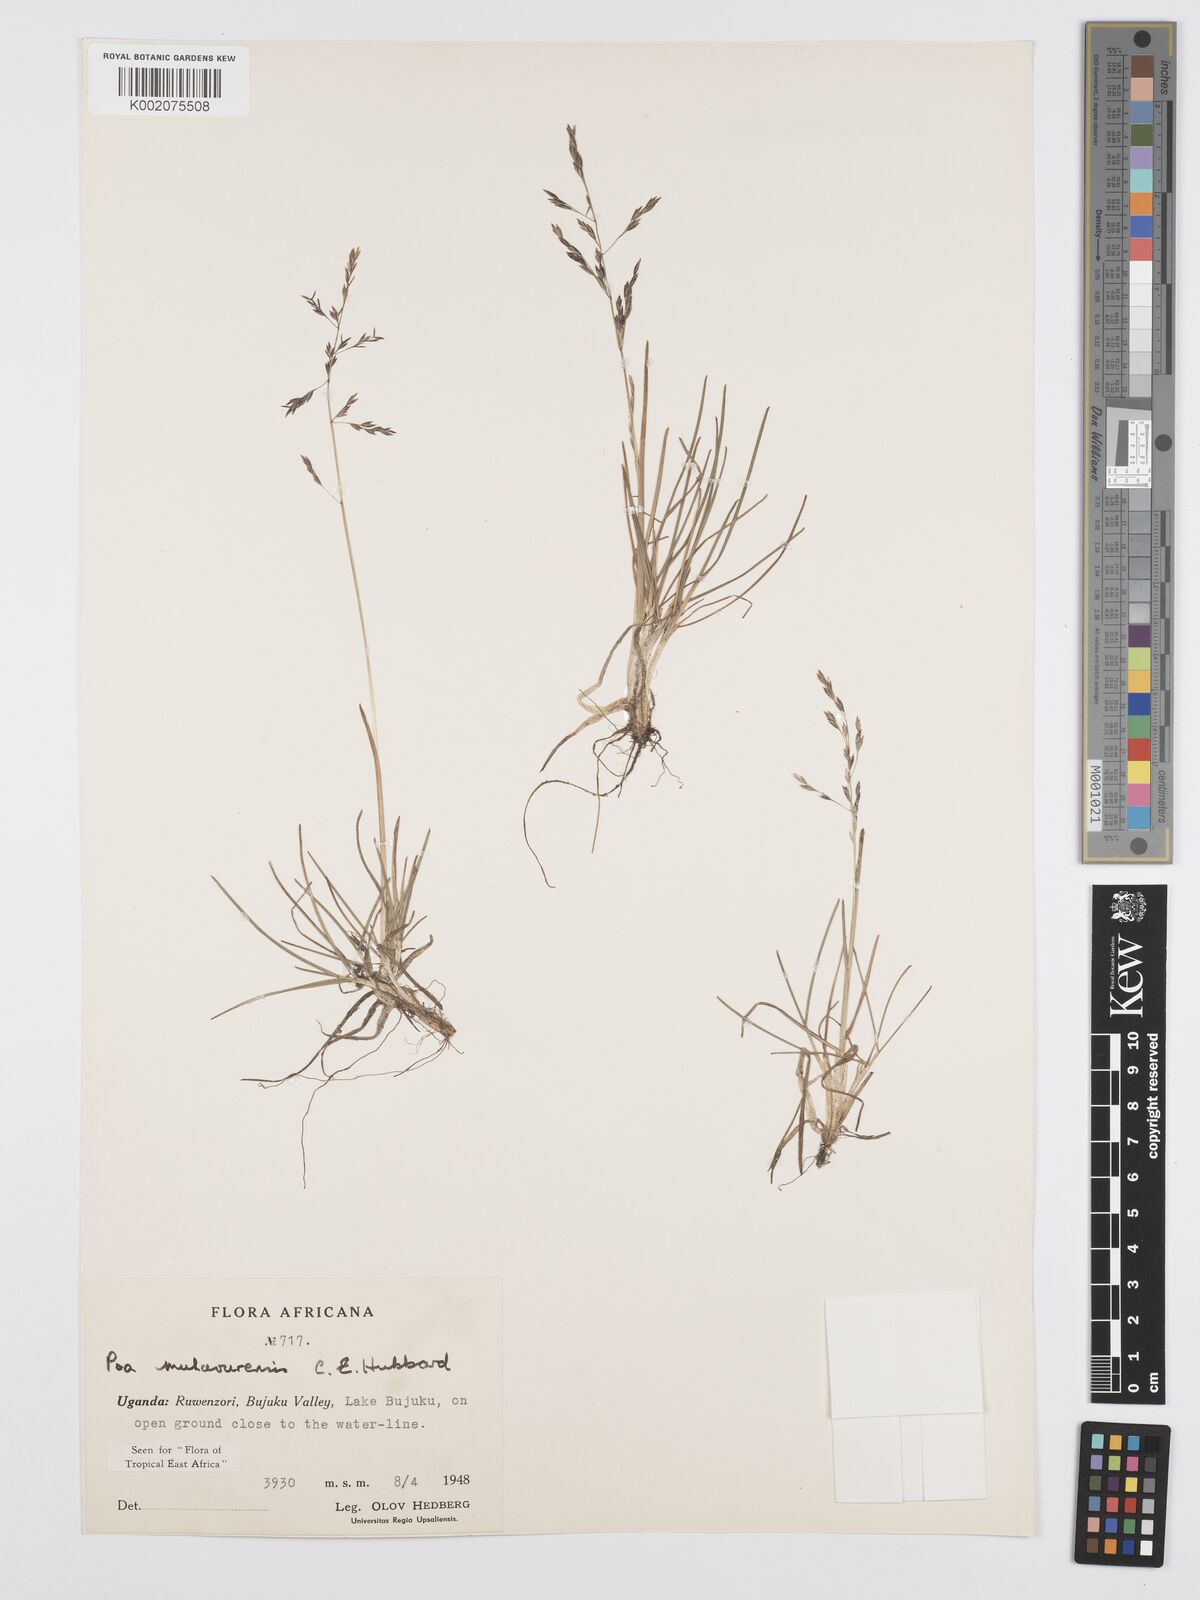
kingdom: Plantae
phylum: Tracheophyta
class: Liliopsida
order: Poales
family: Poaceae
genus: Poa
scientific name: Poa schimperiana
